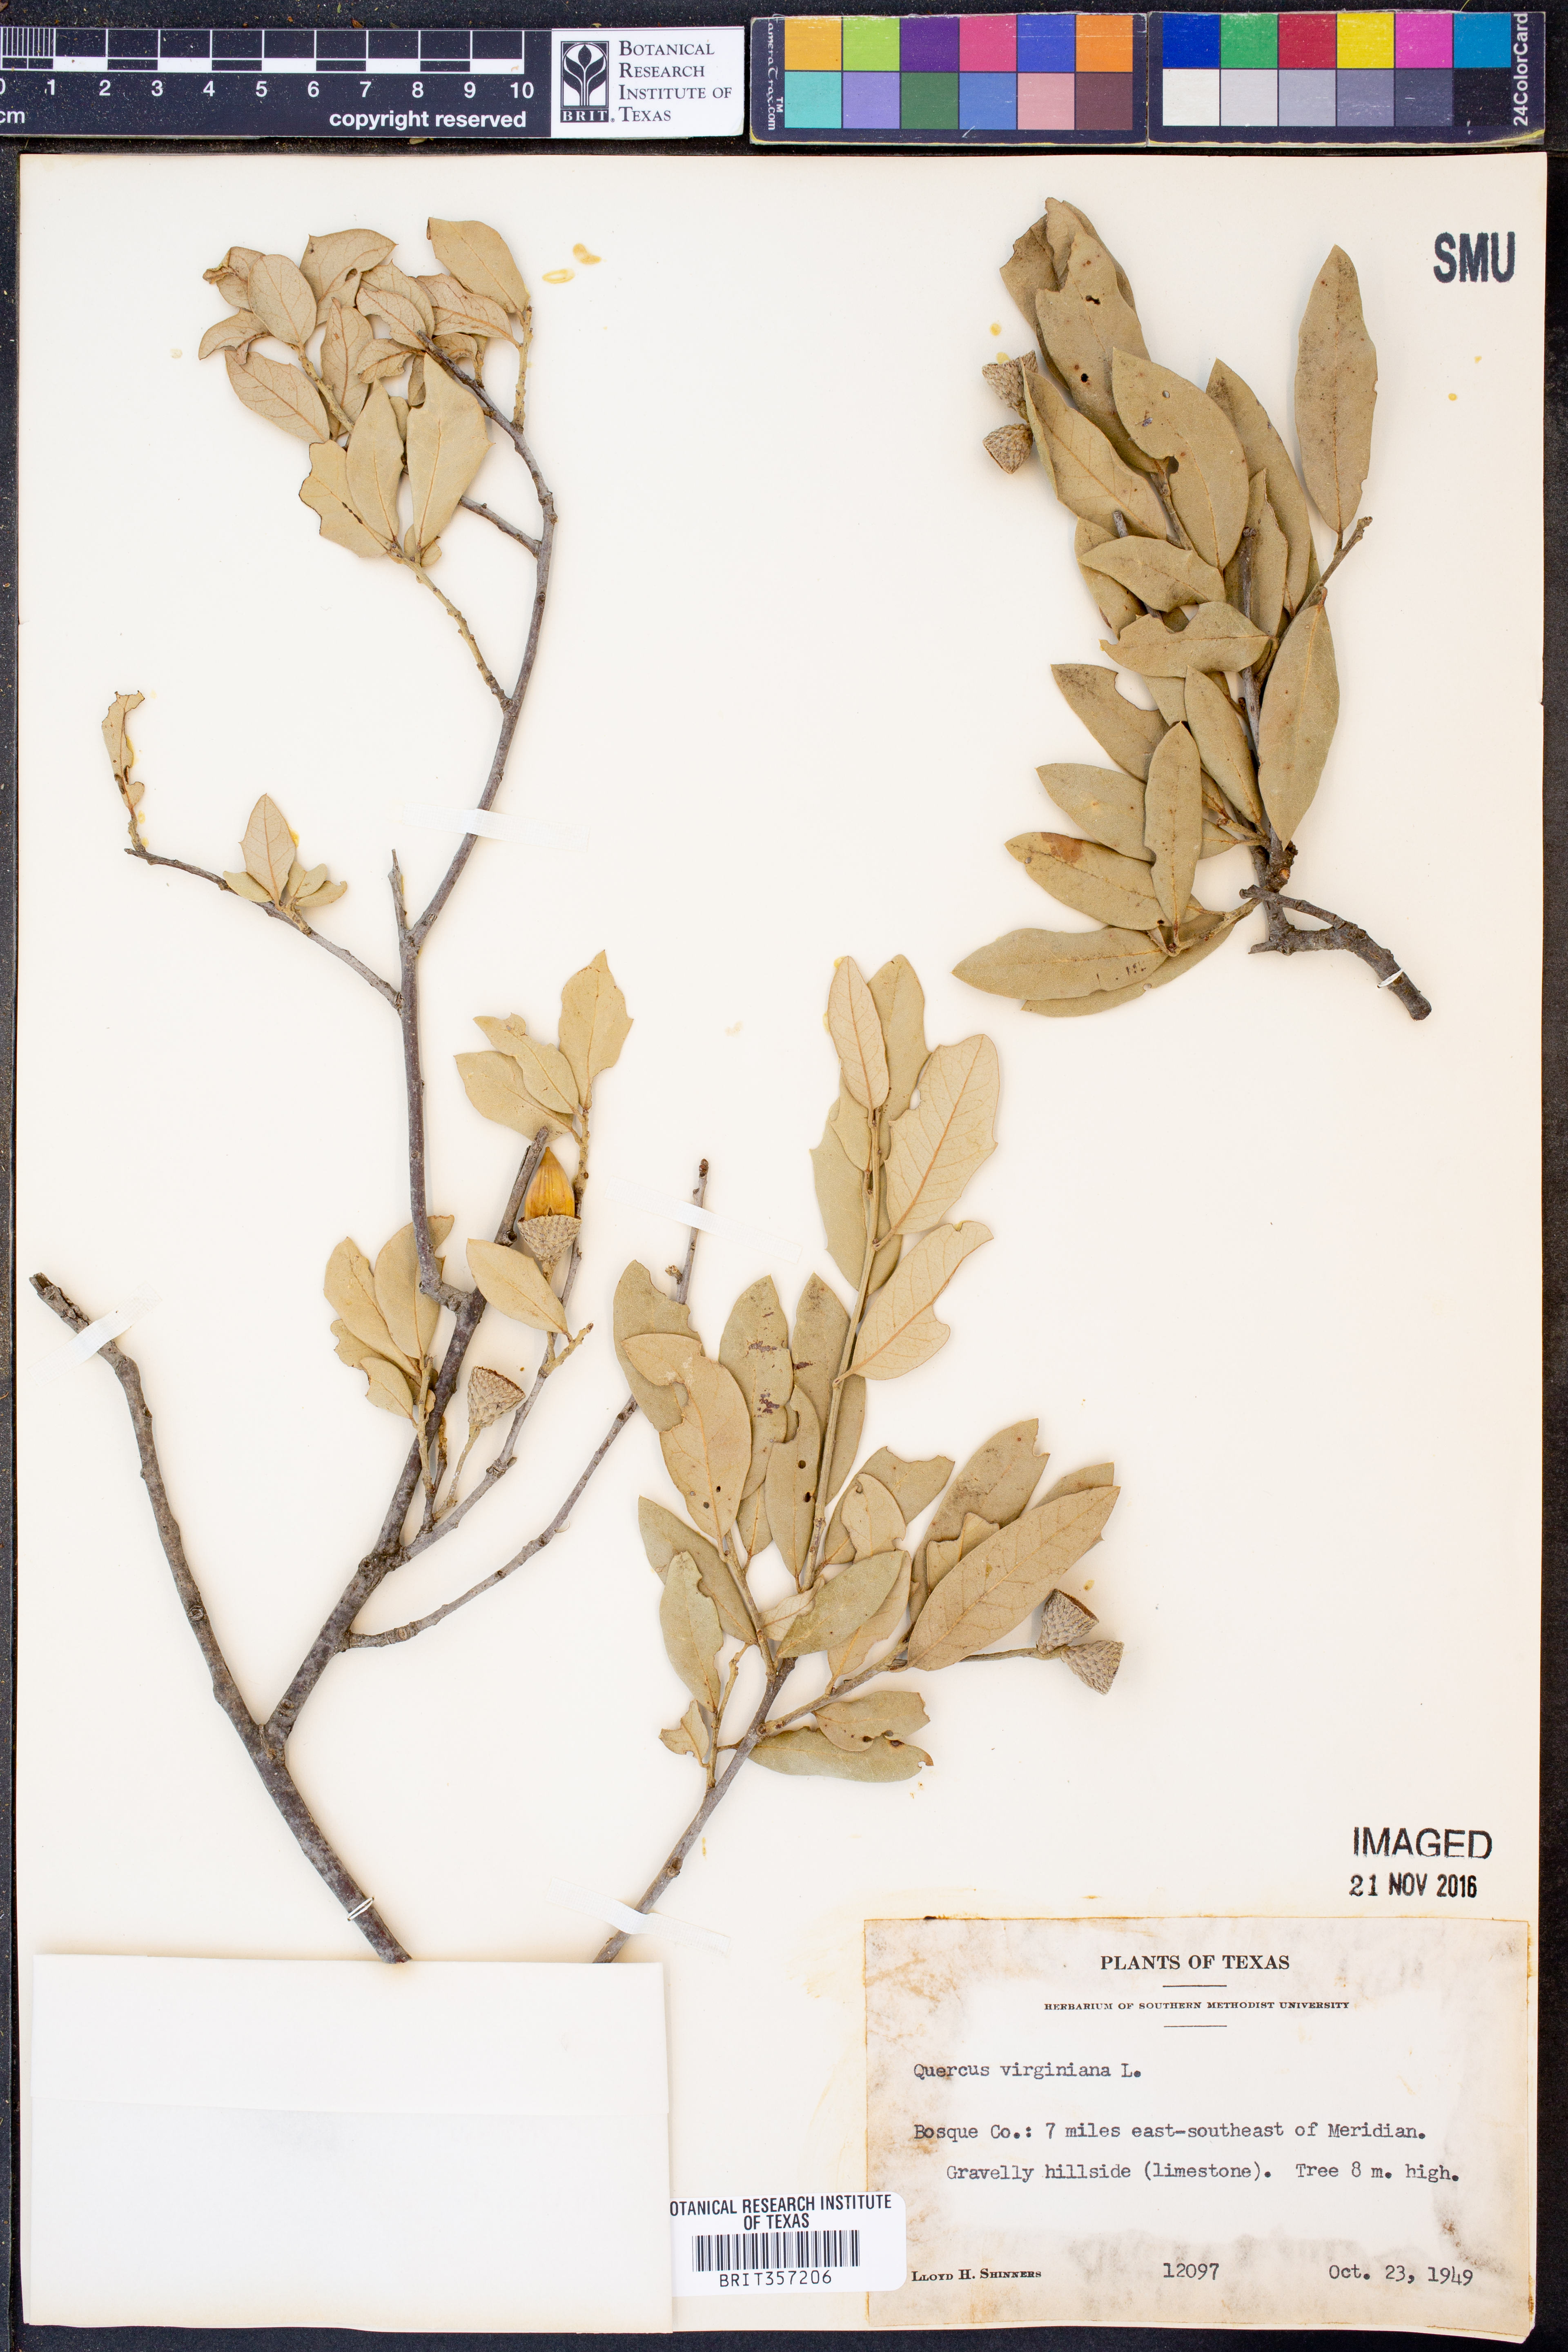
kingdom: Plantae
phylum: Tracheophyta
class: Magnoliopsida
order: Fagales
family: Fagaceae
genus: Quercus
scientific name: Quercus virginiana
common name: Southern live oak
